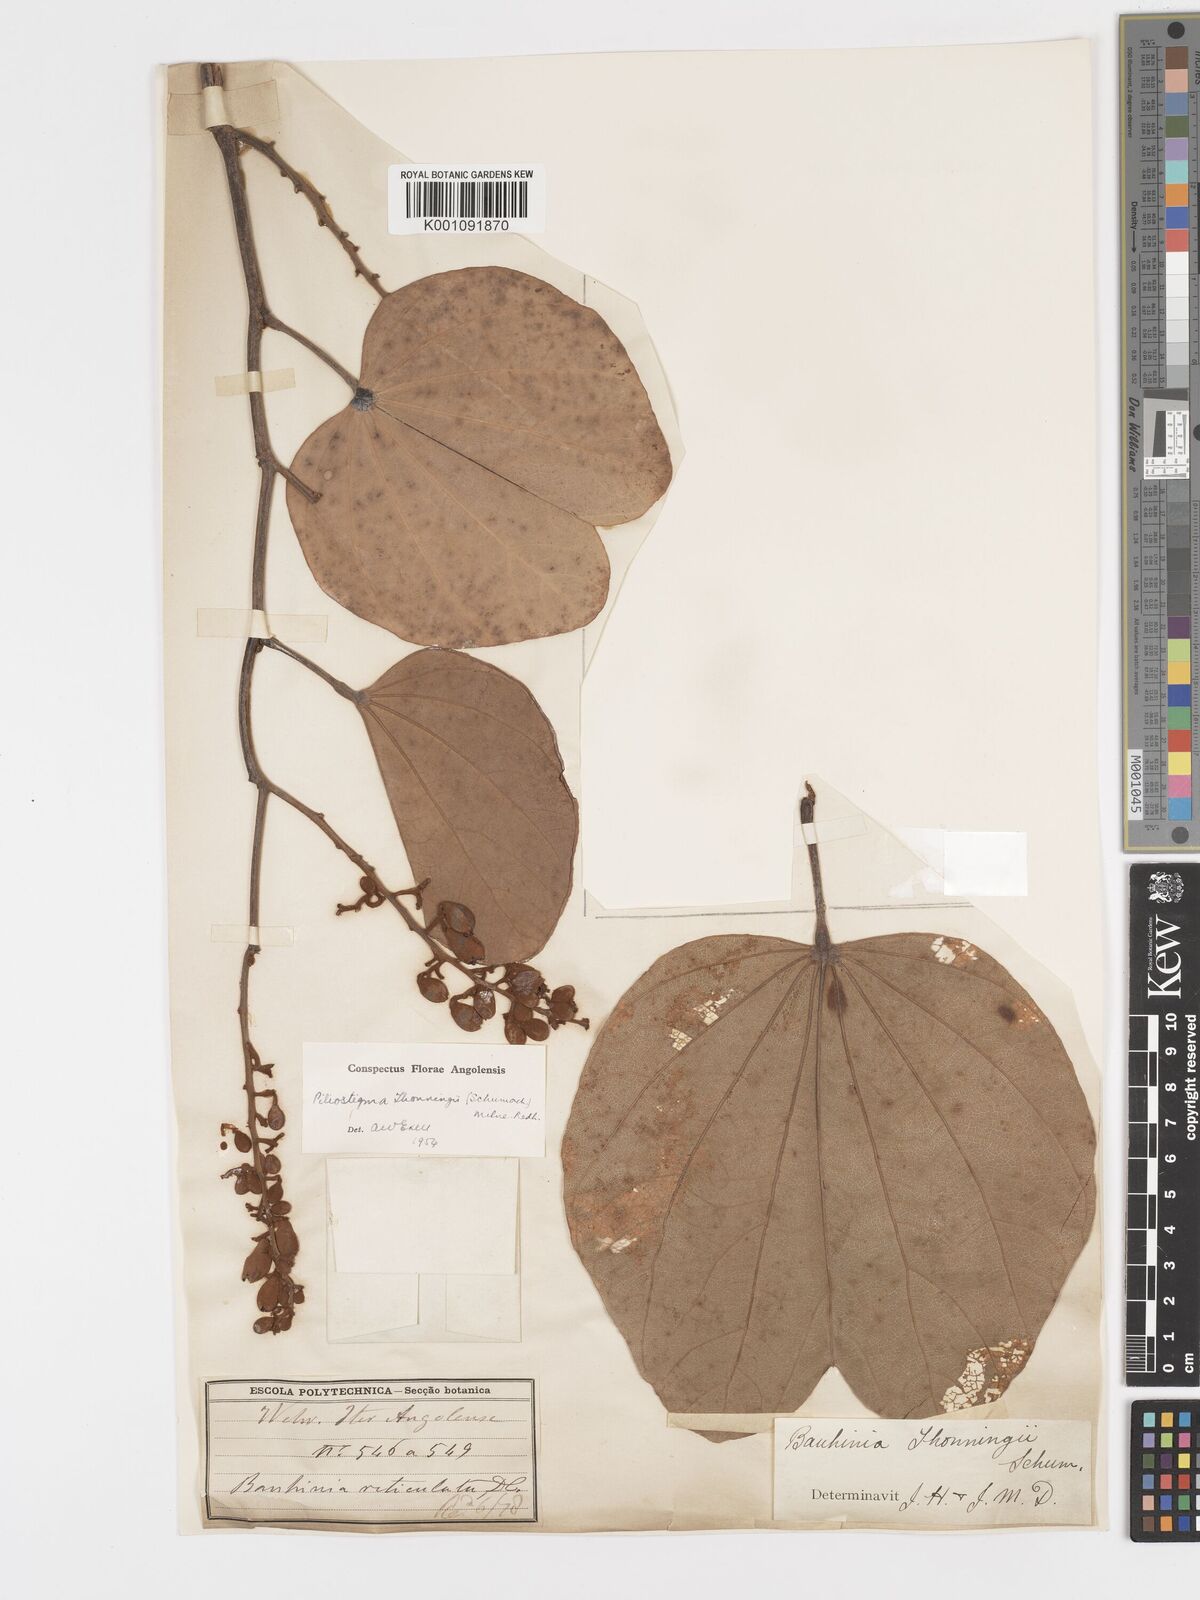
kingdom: Plantae
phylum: Tracheophyta
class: Magnoliopsida
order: Fabales
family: Fabaceae
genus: Piliostigma
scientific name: Piliostigma thonningii
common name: Kao
